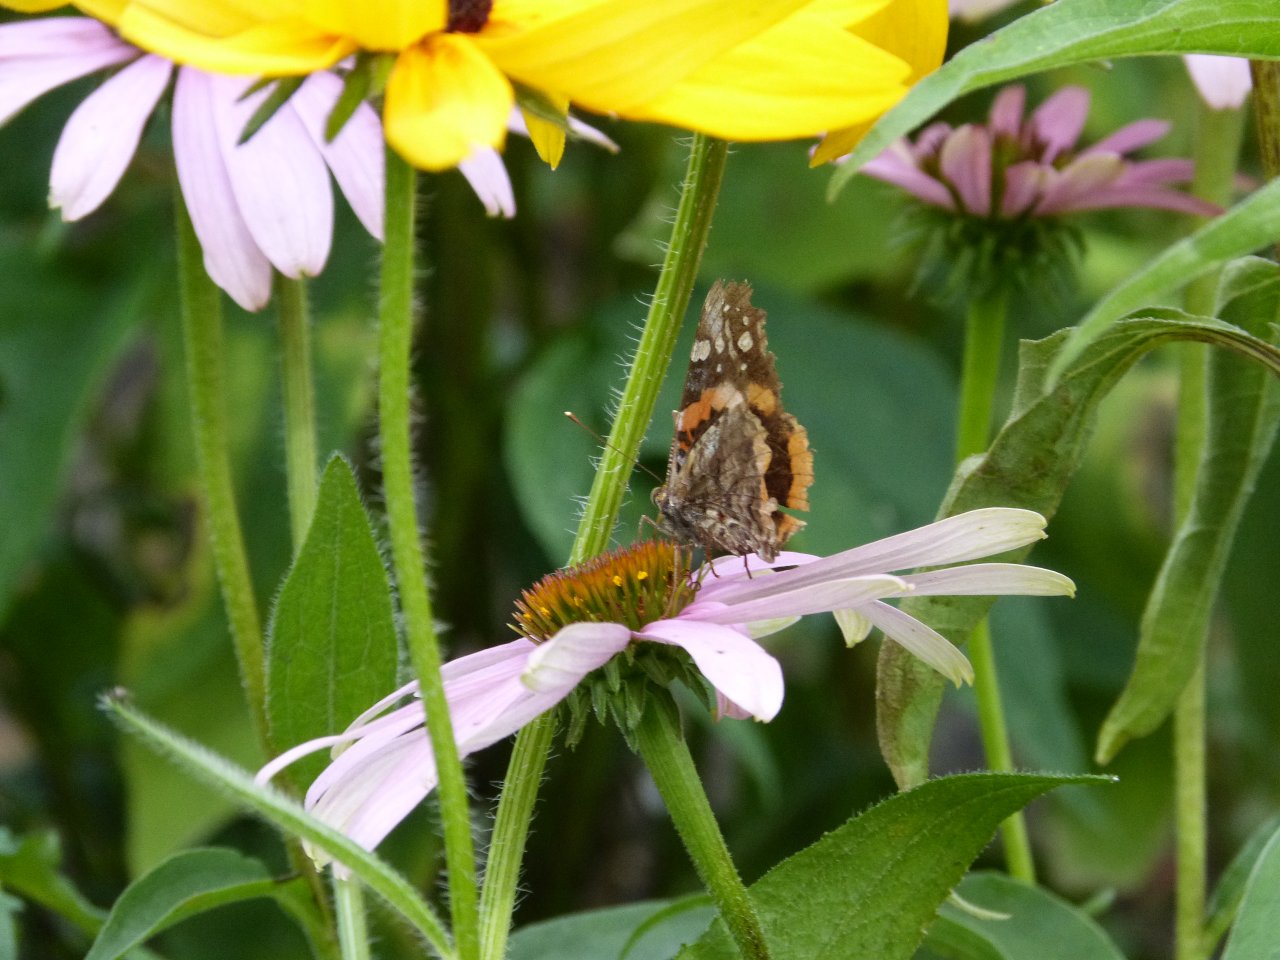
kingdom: Animalia
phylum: Arthropoda
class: Insecta
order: Lepidoptera
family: Nymphalidae
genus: Vanessa
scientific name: Vanessa atalanta
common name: Red Admiral
